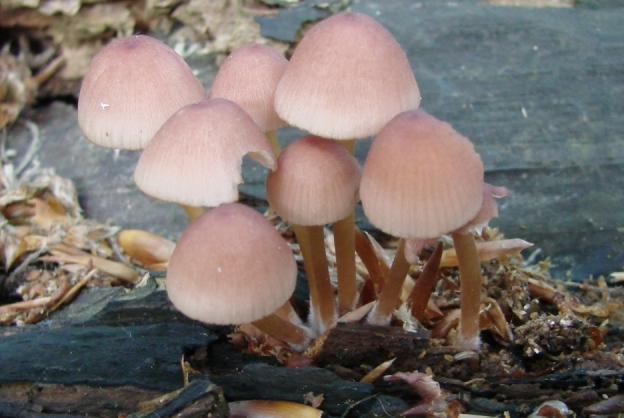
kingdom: Fungi
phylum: Basidiomycota
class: Agaricomycetes
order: Agaricales
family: Mycenaceae
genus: Mycena
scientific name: Mycena renati
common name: smuk huesvamp
